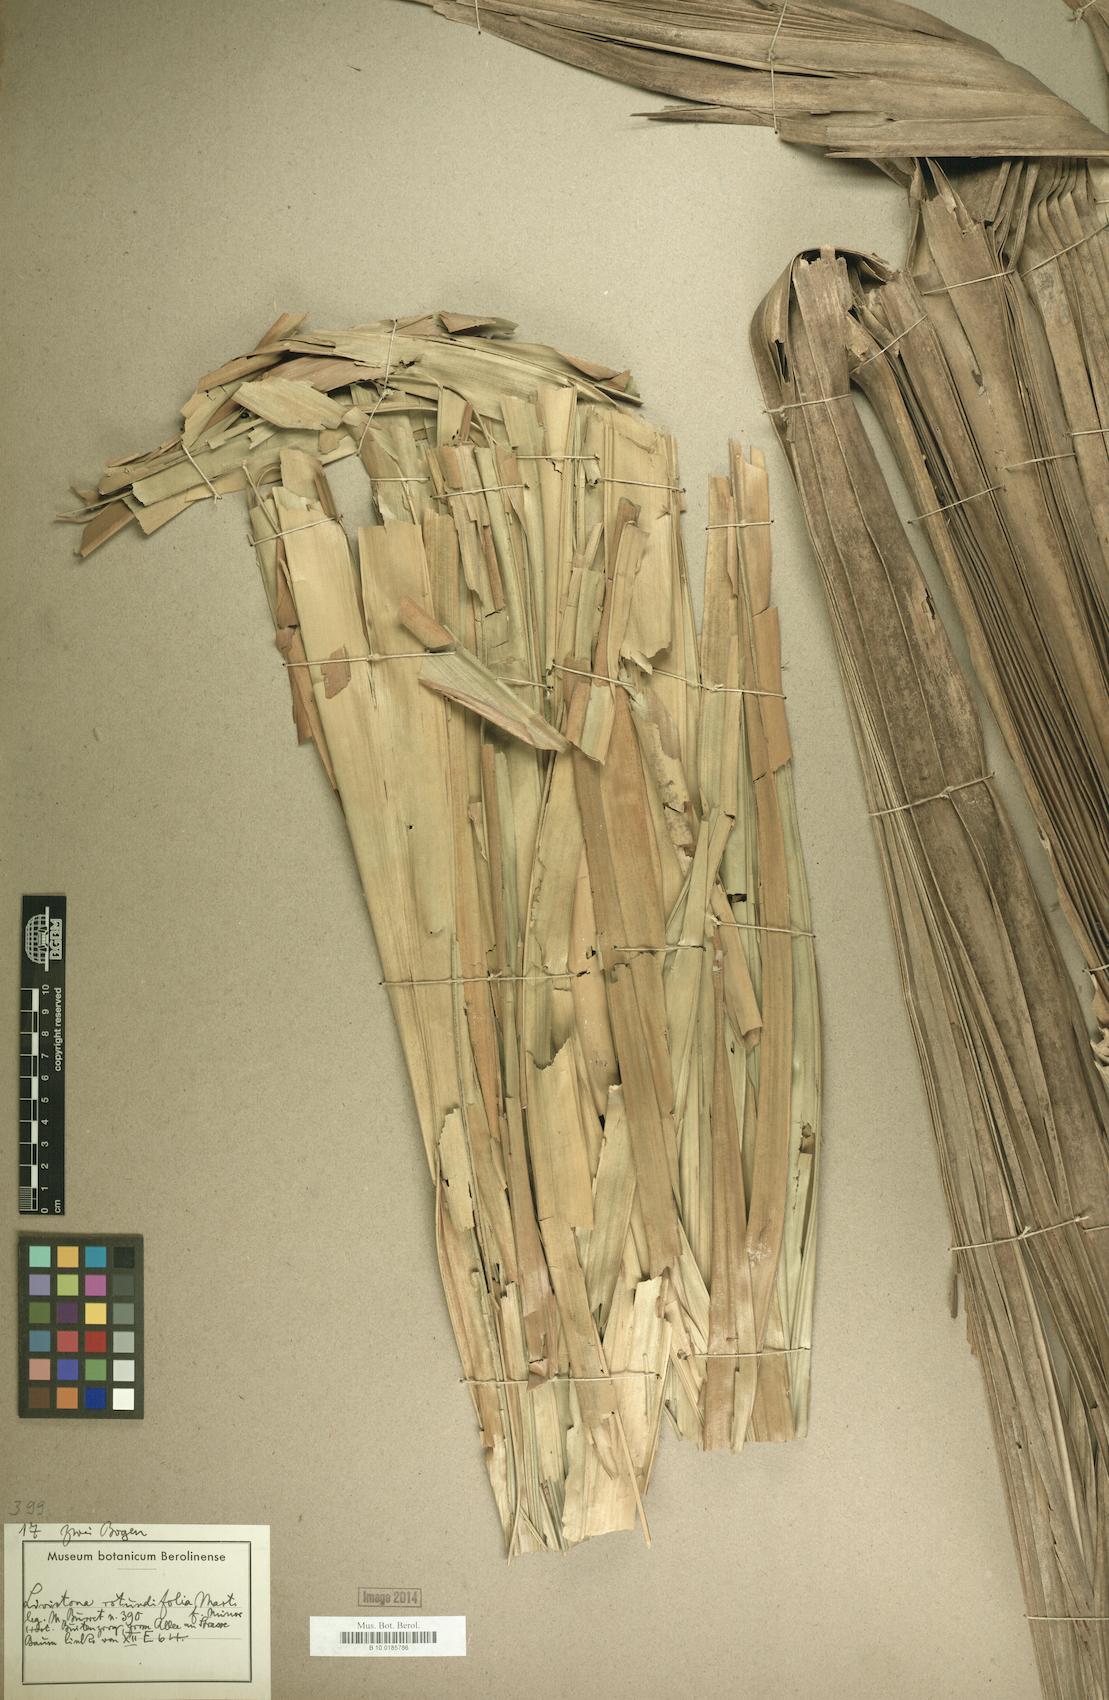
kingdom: Plantae
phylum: Tracheophyta
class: Liliopsida
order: Arecales
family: Arecaceae
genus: Saribus
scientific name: Saribus rotundifolius
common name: Palm
